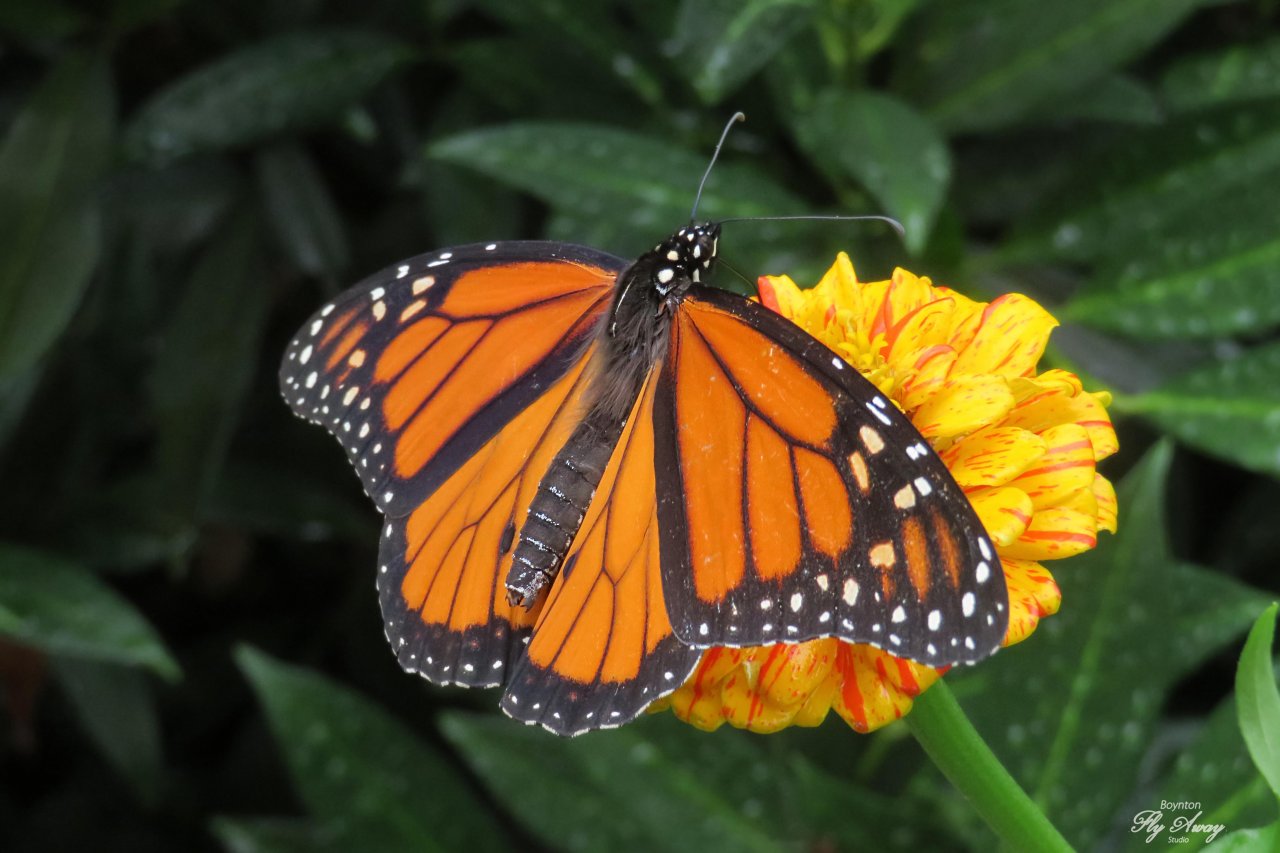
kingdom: Animalia
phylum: Arthropoda
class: Insecta
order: Lepidoptera
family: Nymphalidae
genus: Danaus
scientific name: Danaus plexippus
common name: Monarch
